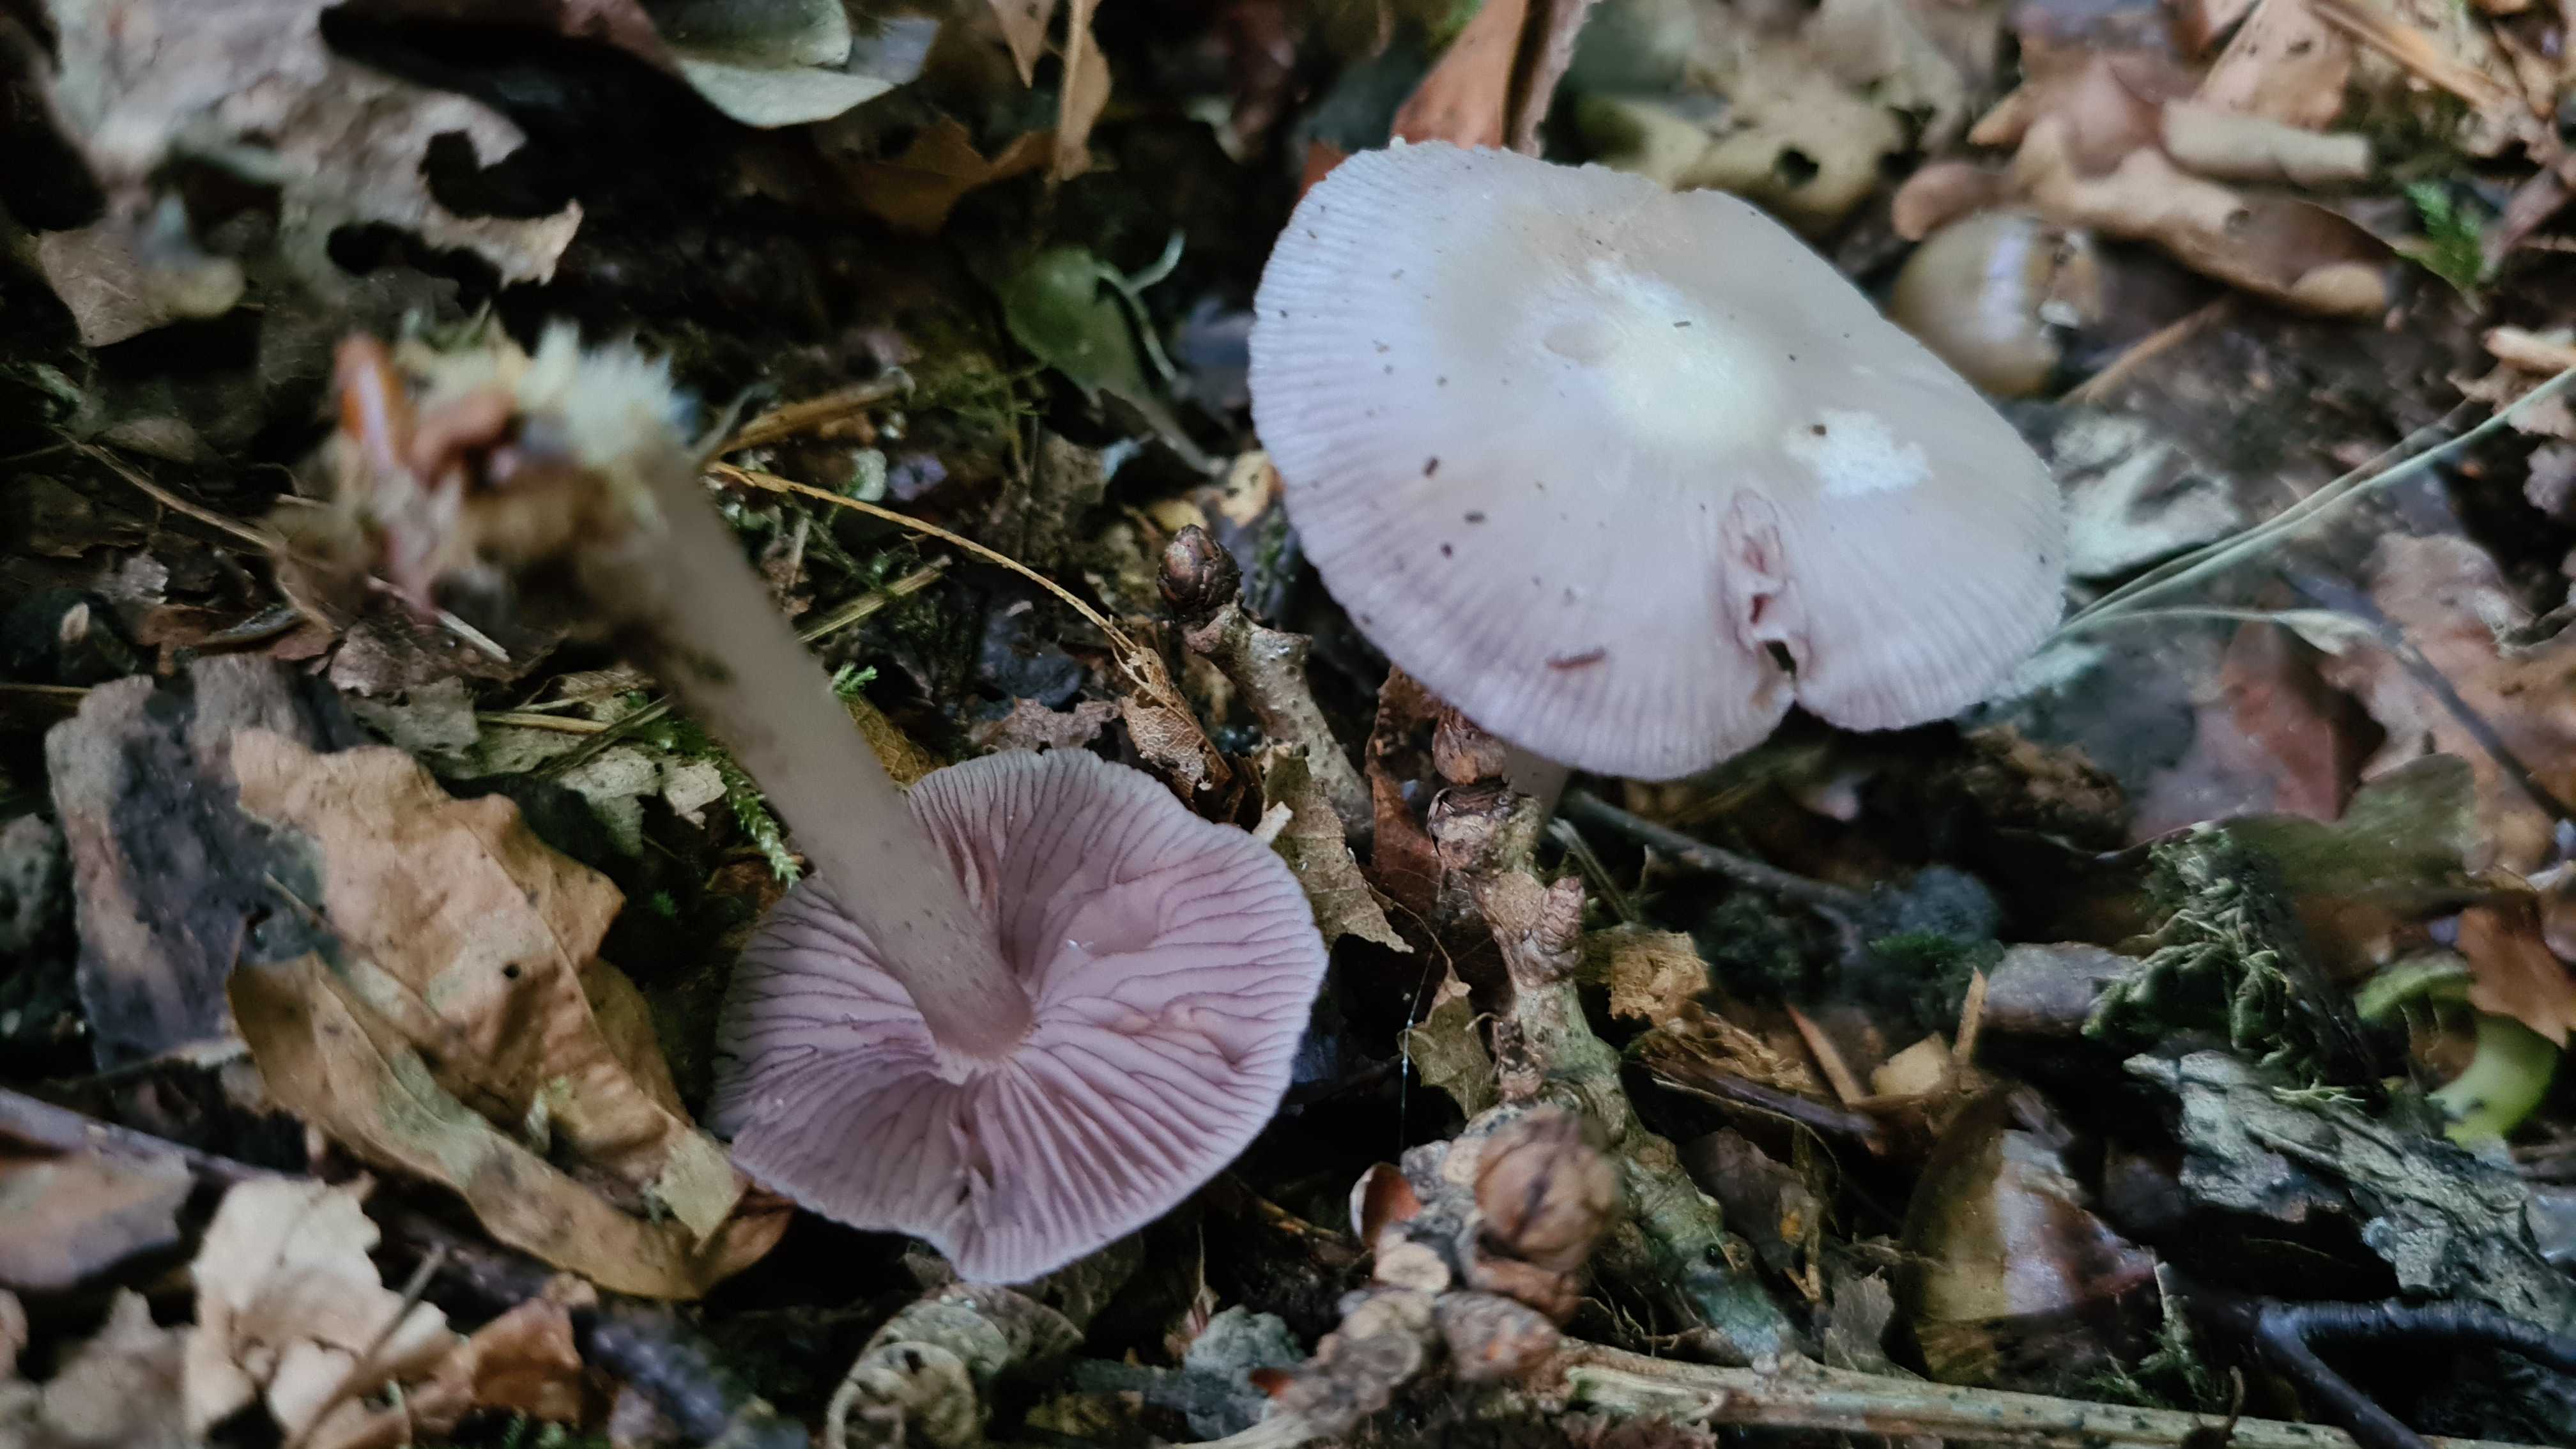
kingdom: Fungi
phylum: Basidiomycota
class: Agaricomycetes
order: Agaricales
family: Mycenaceae
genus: Mycena
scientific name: Mycena pelianthina
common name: mørkbladet huesvamp
